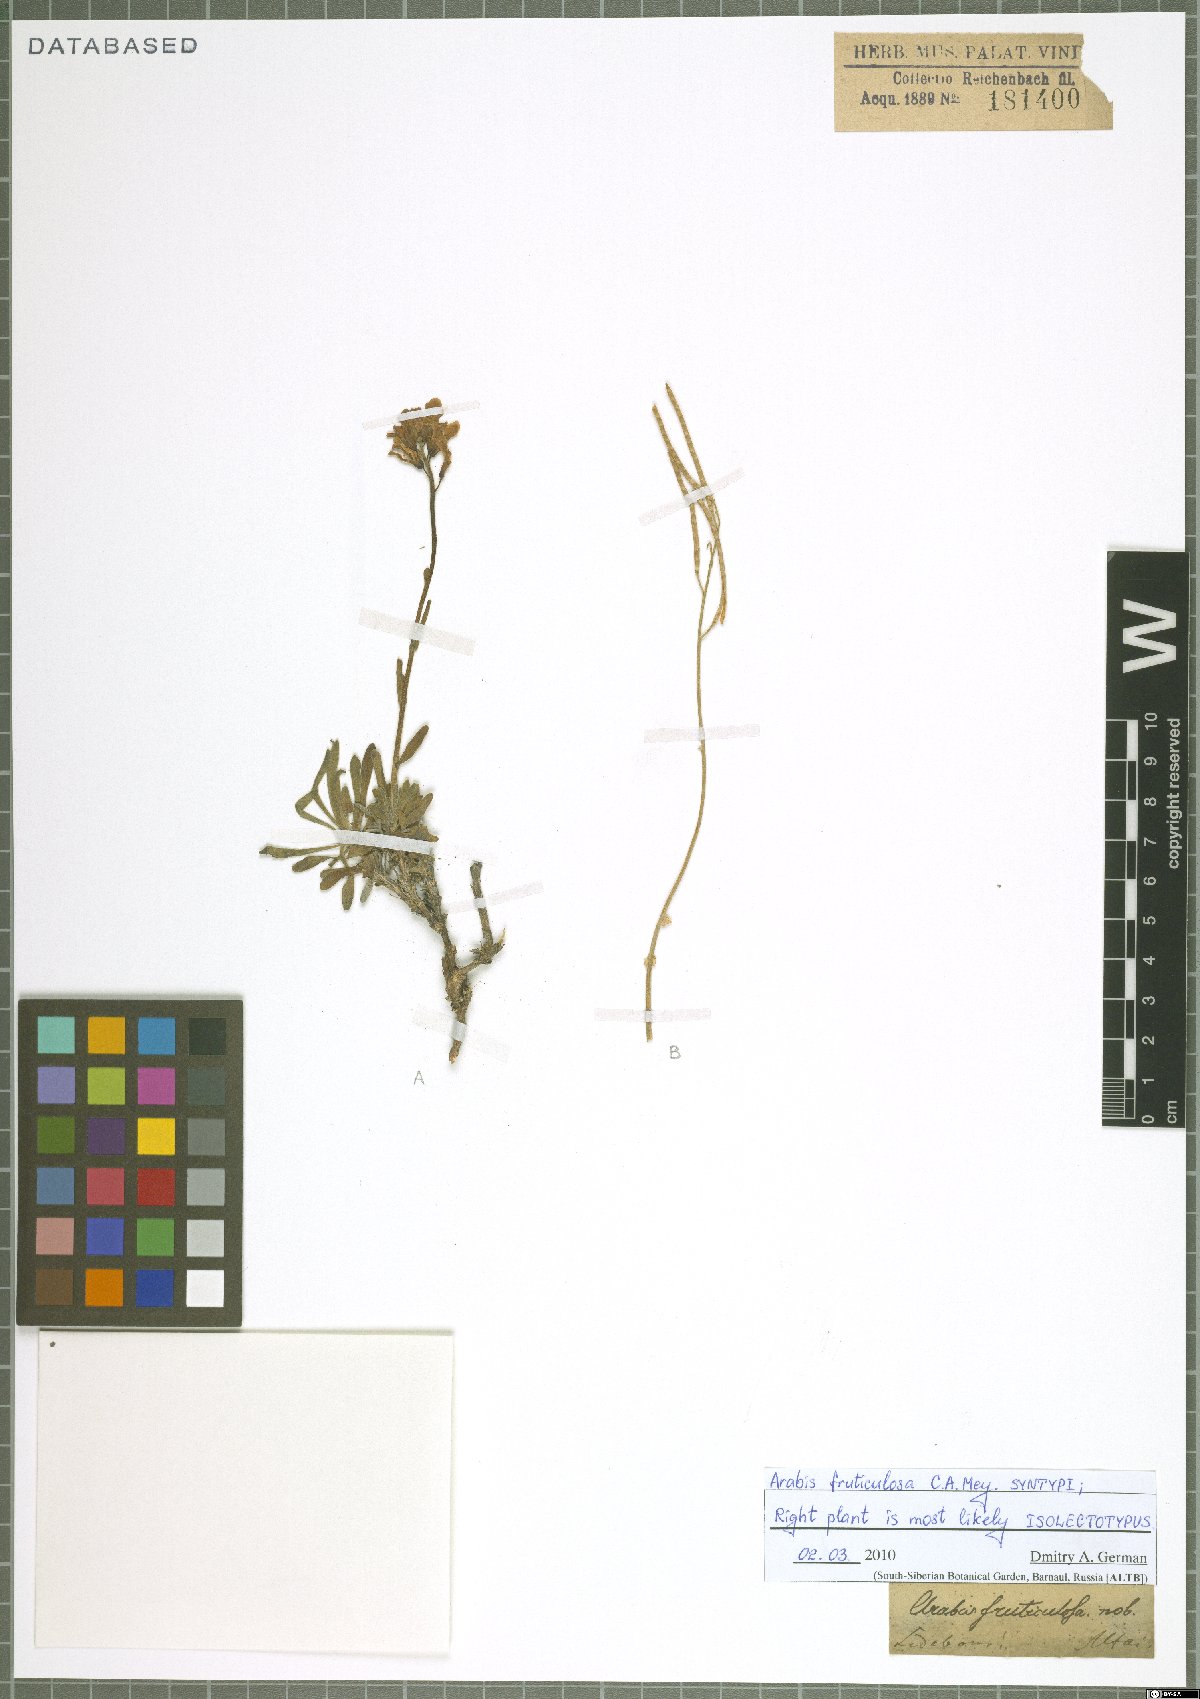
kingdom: Plantae
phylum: Tracheophyta
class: Magnoliopsida
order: Brassicales
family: Brassicaceae
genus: Dendroarabis
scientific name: Dendroarabis fruticulosa
